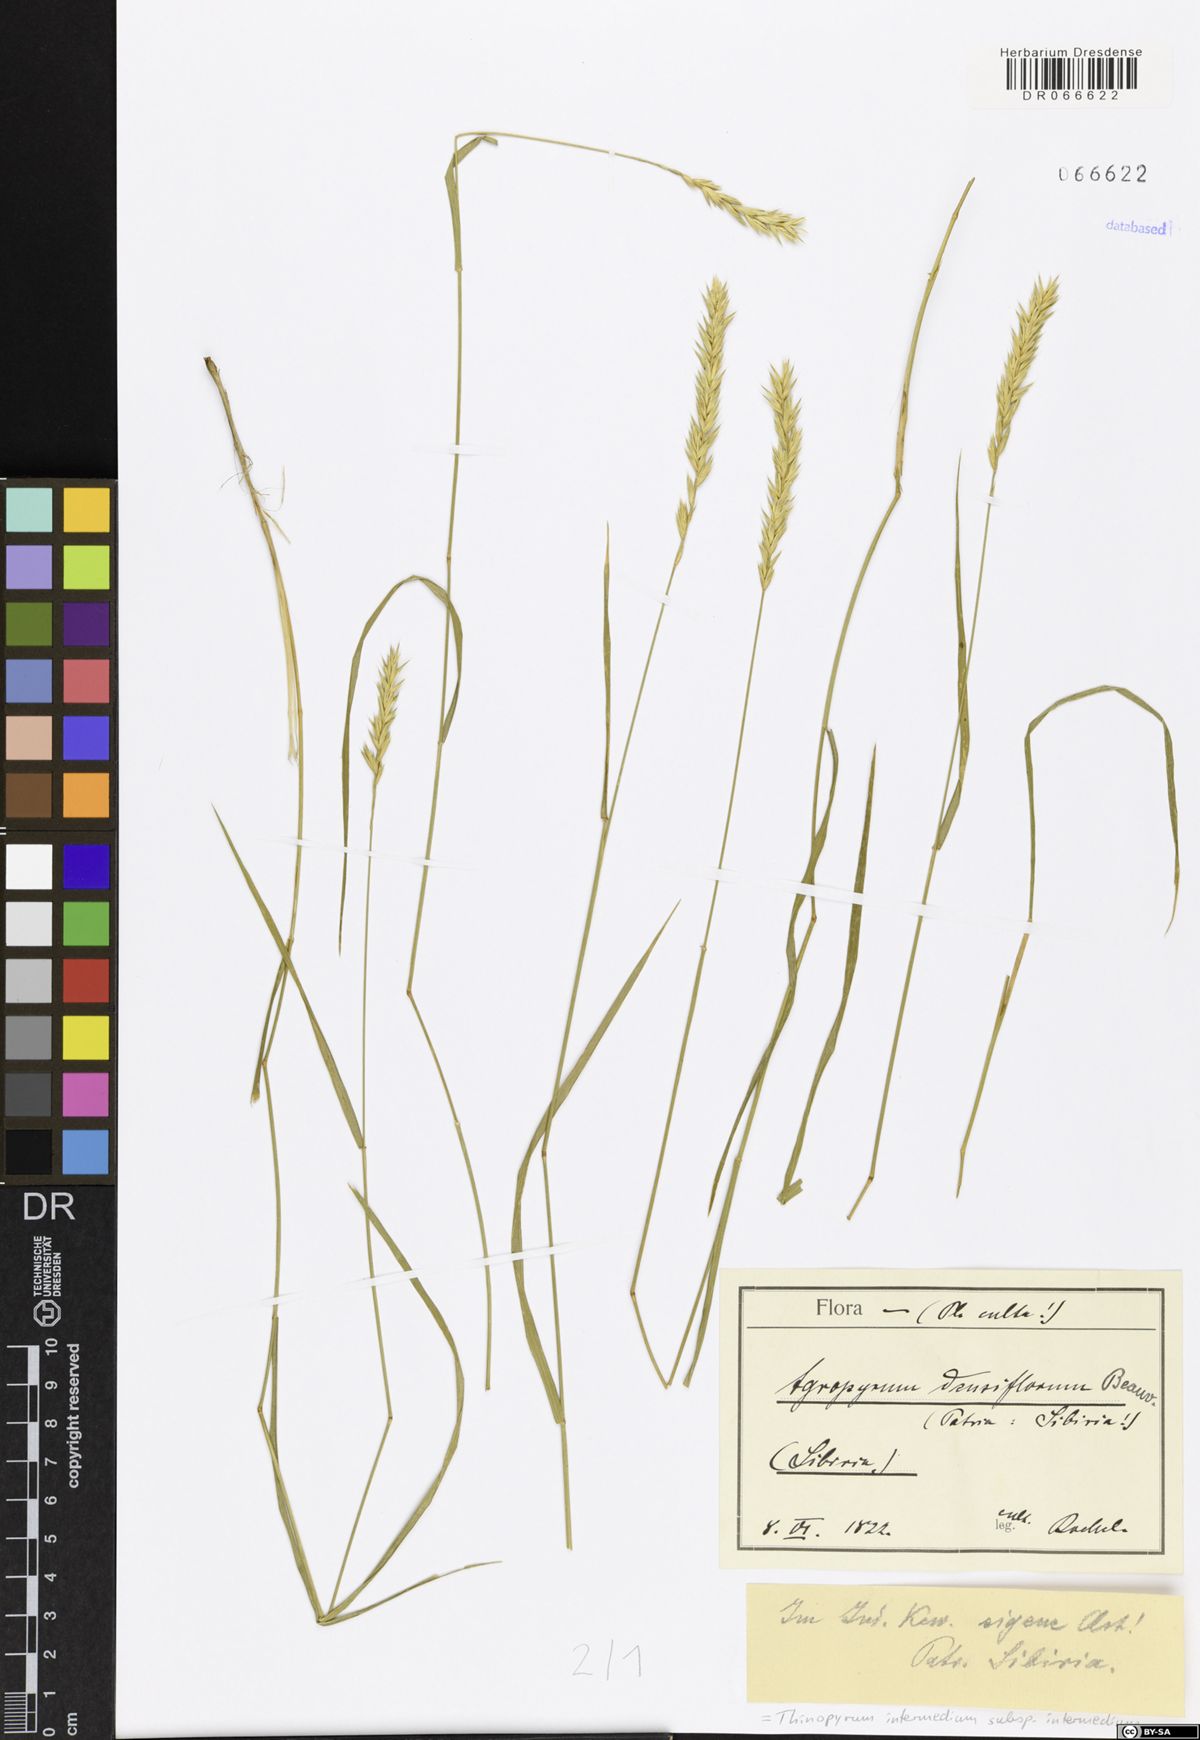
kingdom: Plantae
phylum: Tracheophyta
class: Liliopsida
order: Poales
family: Poaceae
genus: Thinopyrum
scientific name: Thinopyrum intermedium
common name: Intermediate wheatgrass
